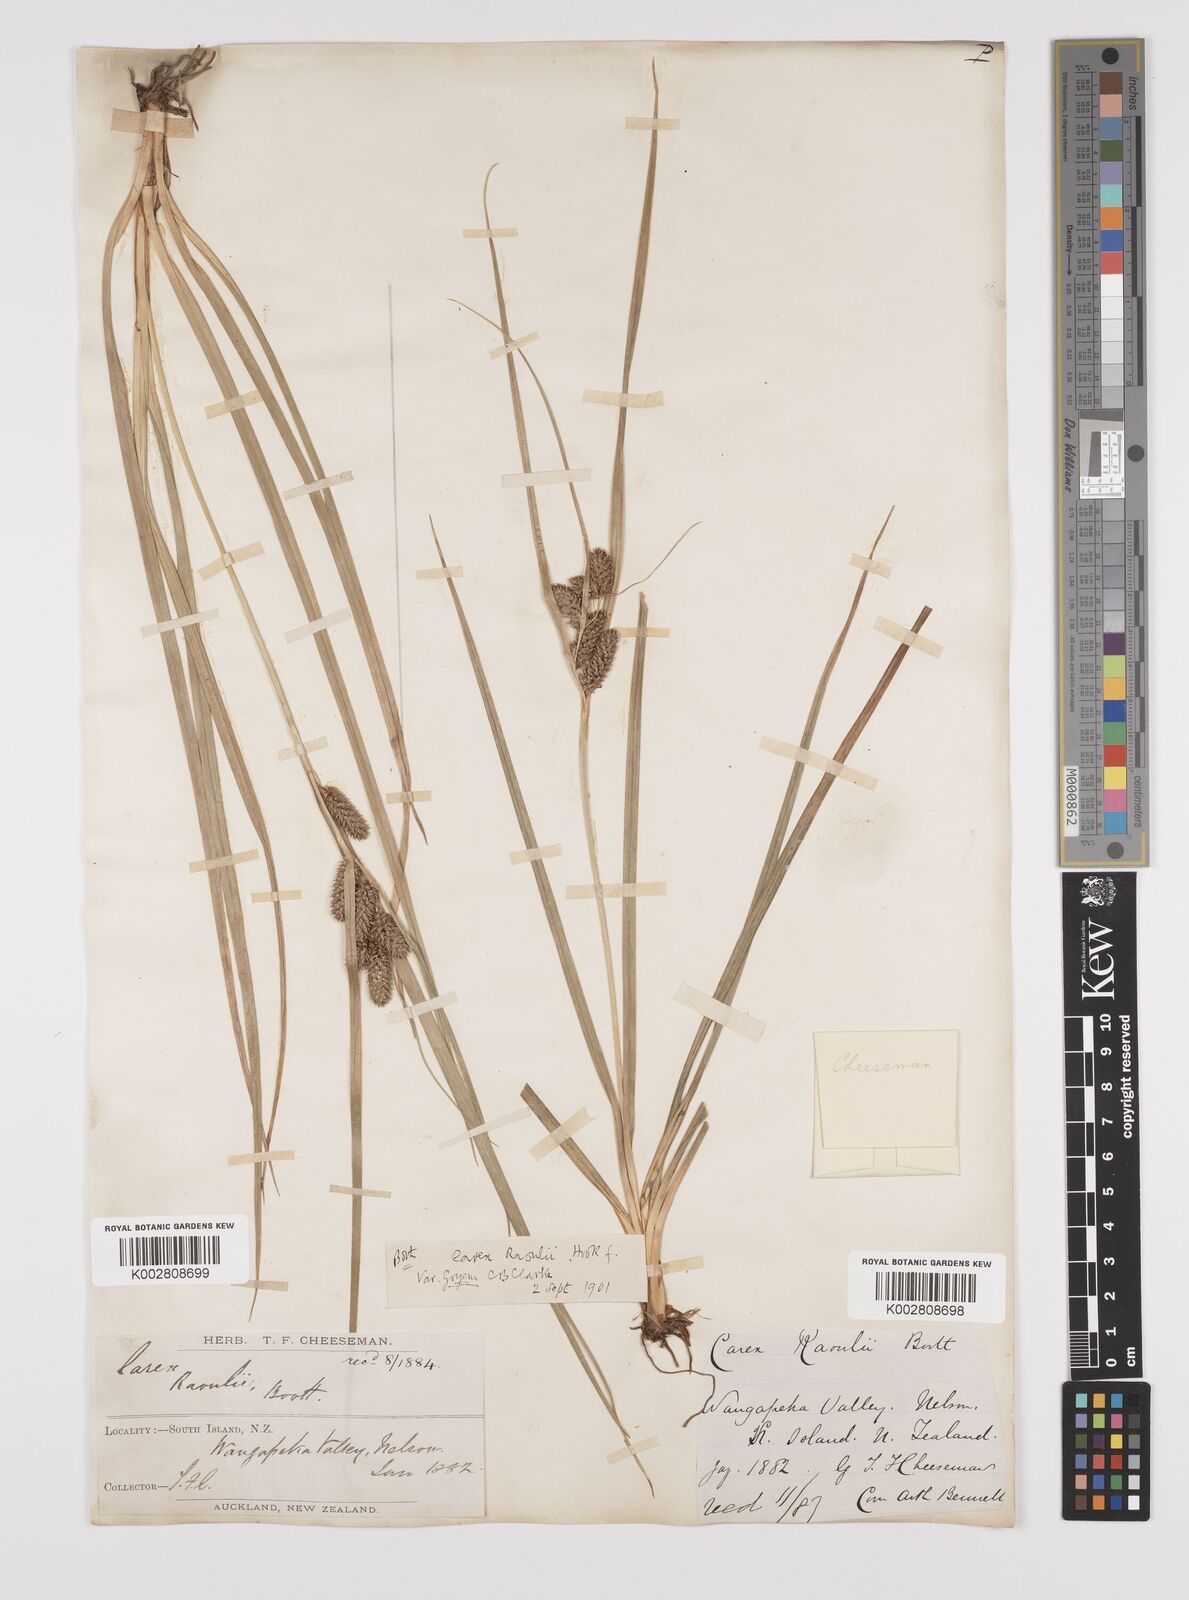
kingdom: Plantae
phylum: Tracheophyta
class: Liliopsida
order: Poales
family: Cyperaceae
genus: Carex
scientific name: Carex goyenii
